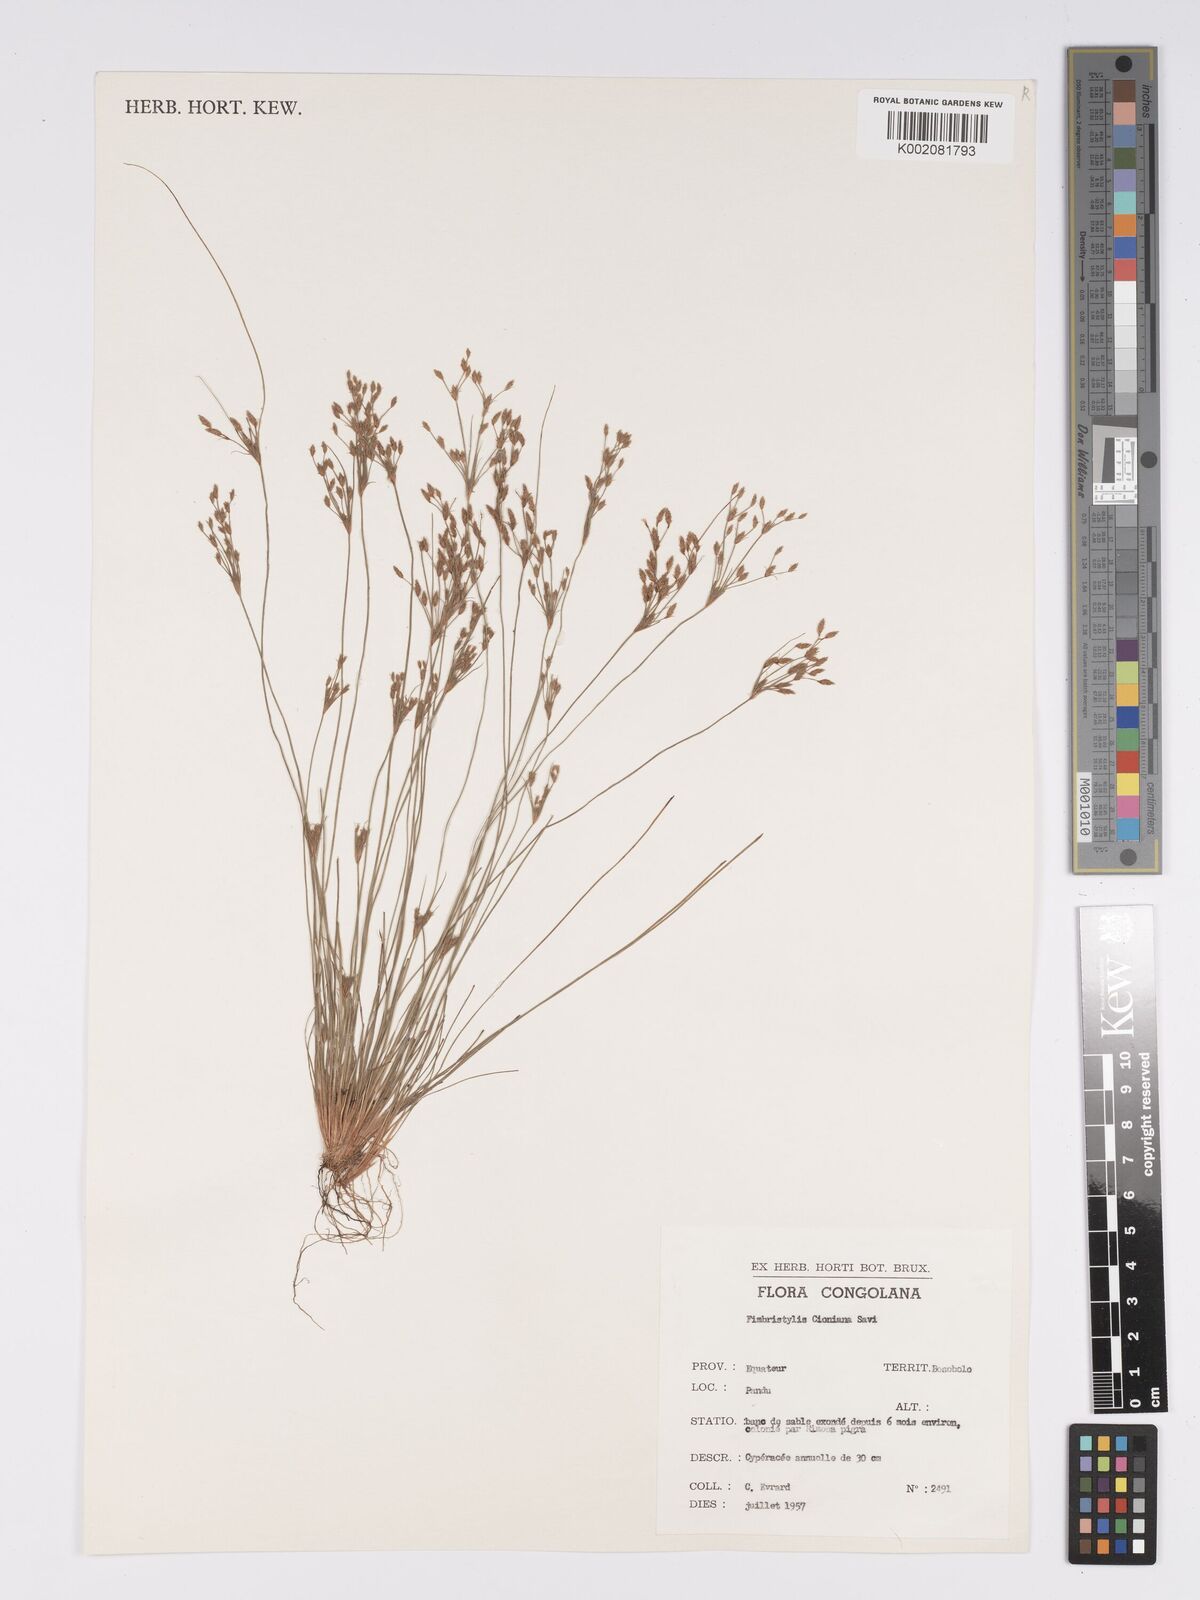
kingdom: Plantae
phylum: Tracheophyta
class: Liliopsida
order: Poales
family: Cyperaceae
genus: Bulbostylis
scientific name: Bulbostylis cioniana
